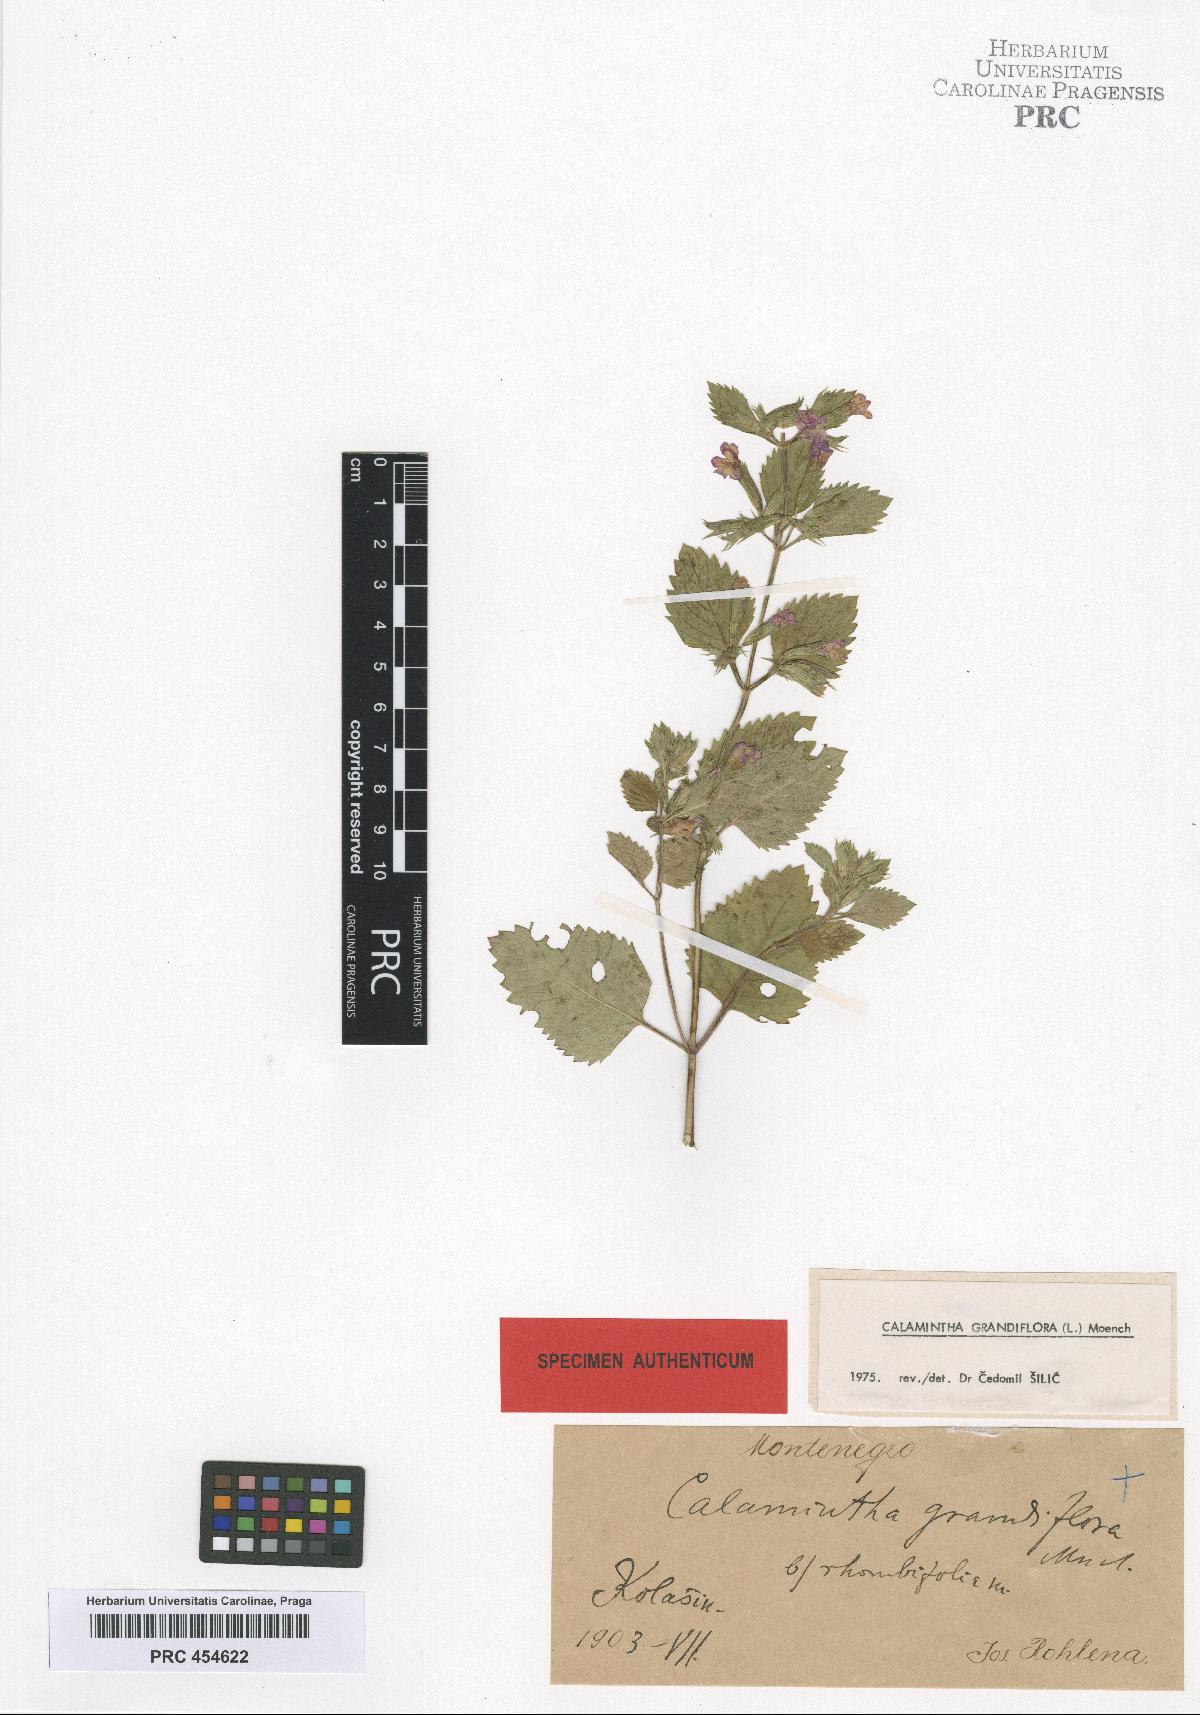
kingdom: Plantae
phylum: Tracheophyta
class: Magnoliopsida
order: Lamiales
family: Lamiaceae
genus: Clinopodium
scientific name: Clinopodium grandiflorum
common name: Greater calamint
